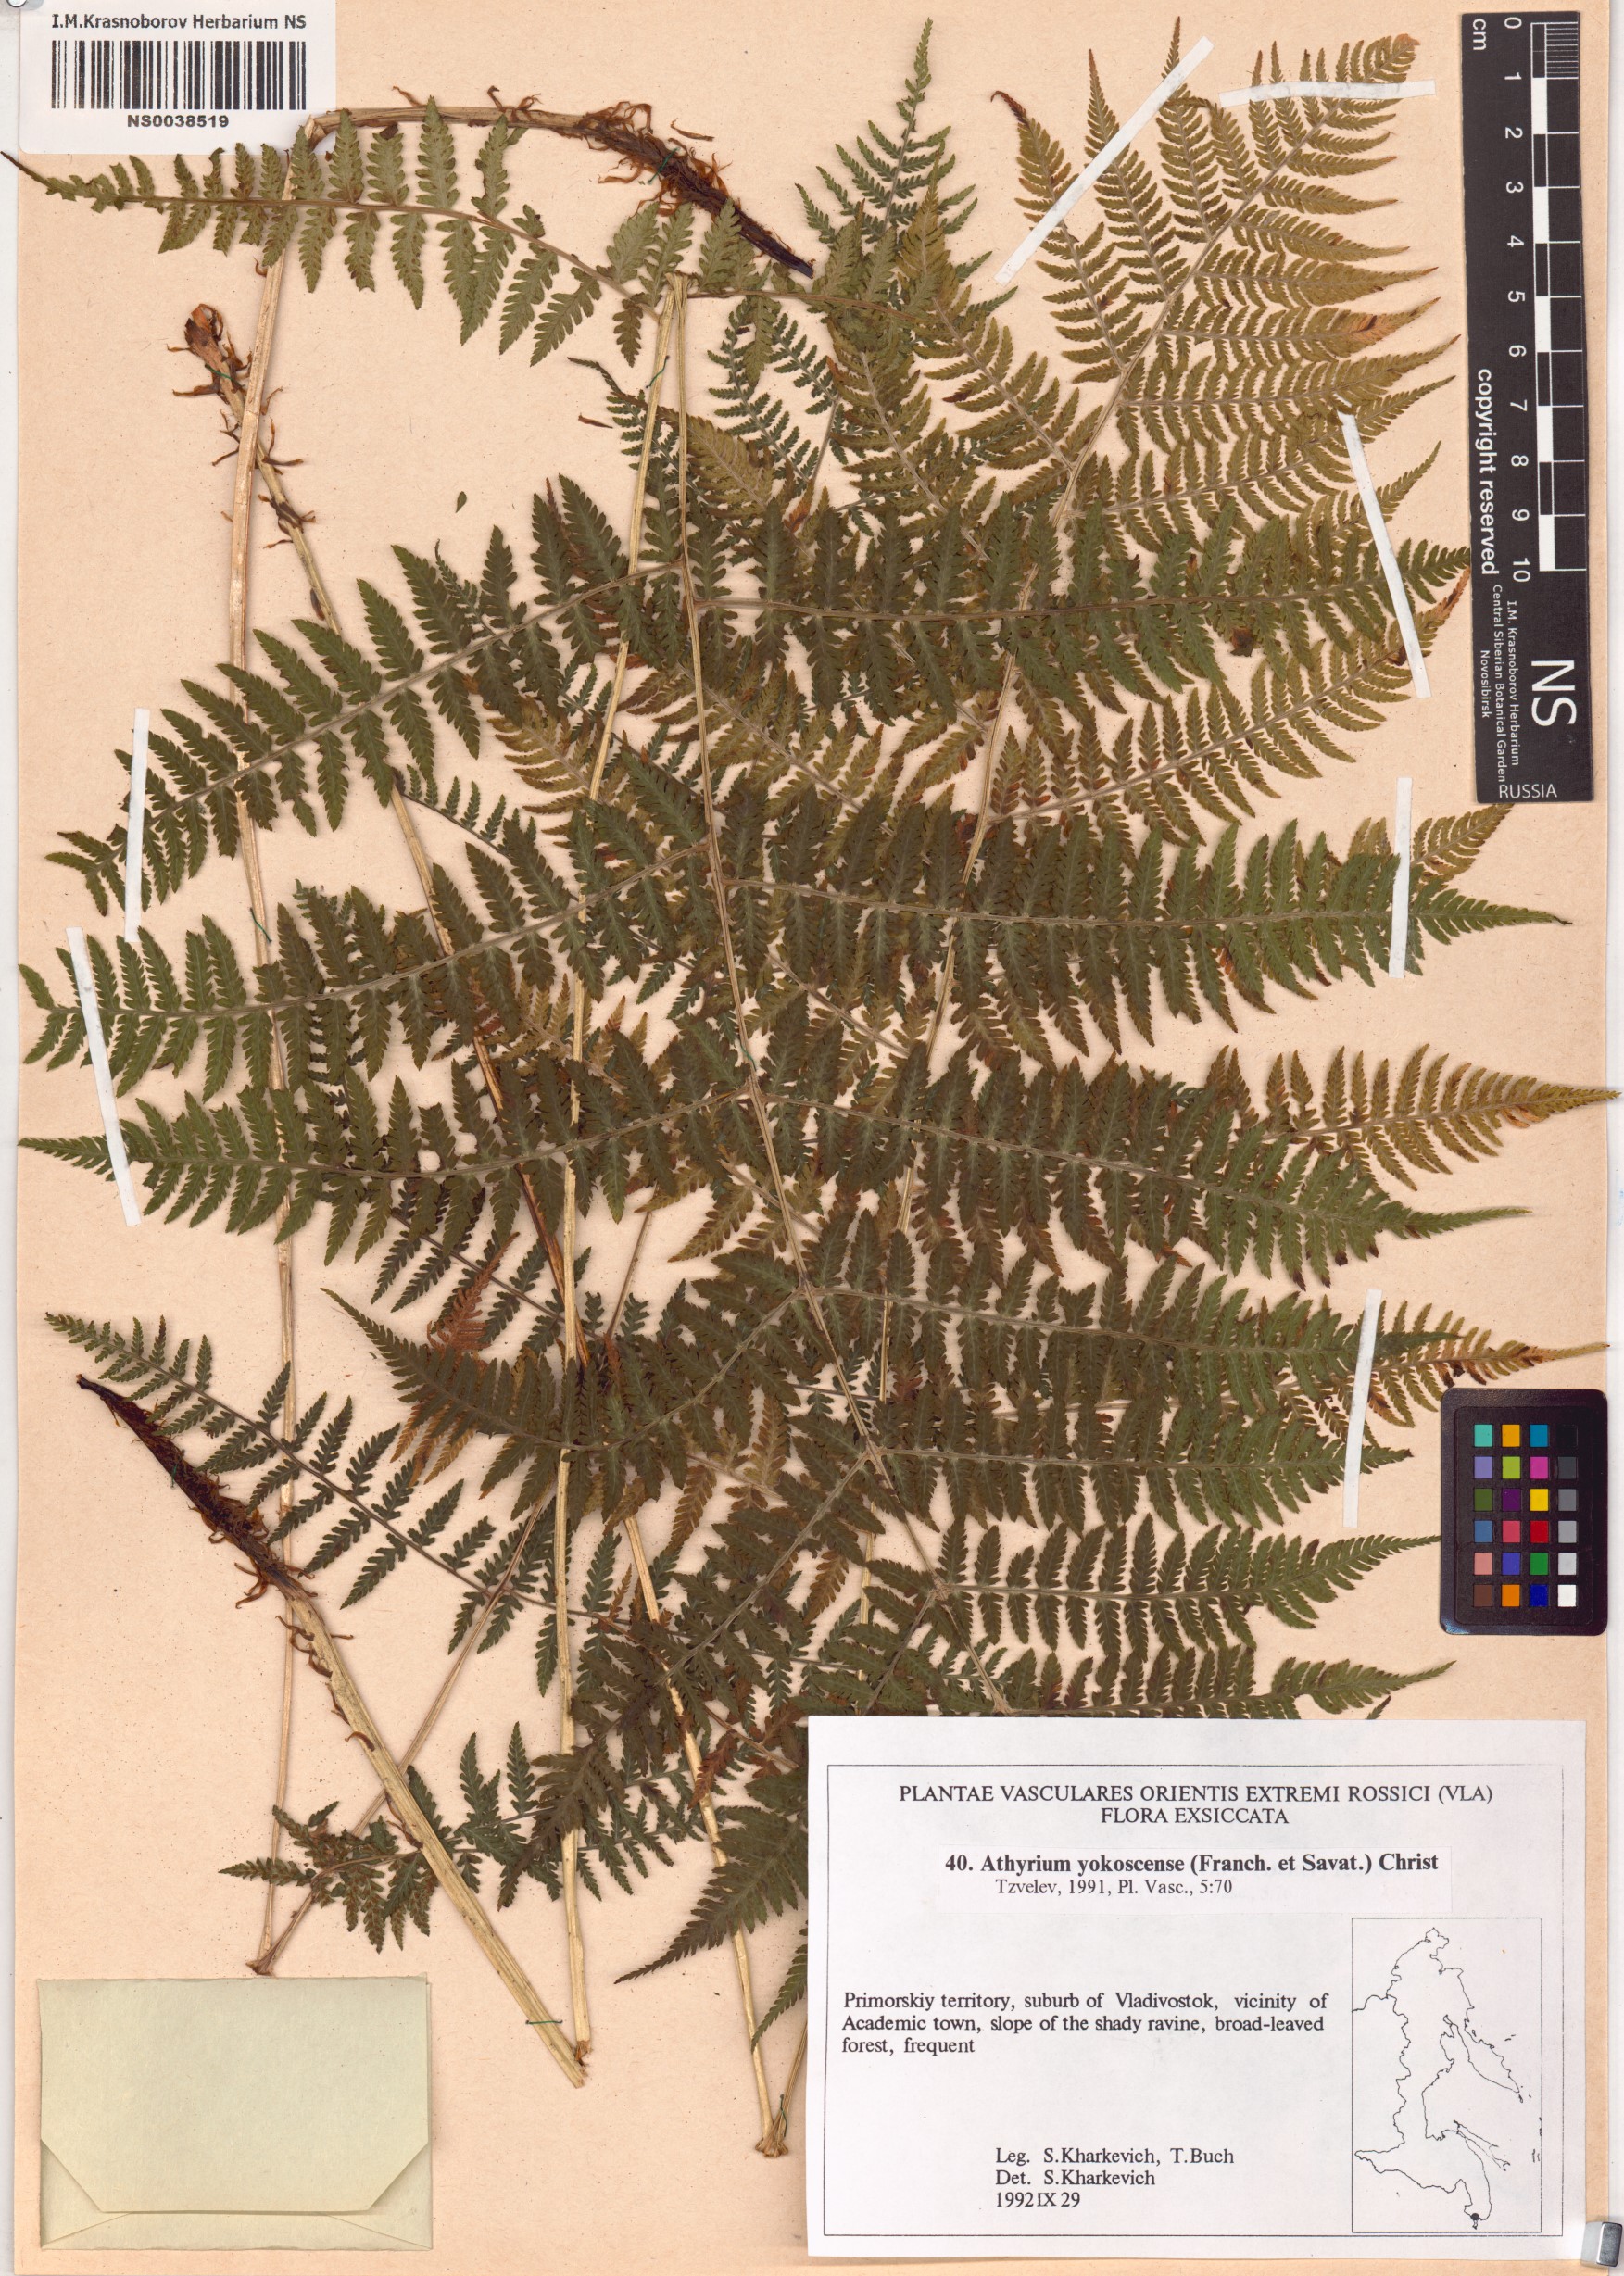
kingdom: Plantae
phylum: Tracheophyta
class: Polypodiopsida
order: Polypodiales
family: Athyriaceae
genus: Athyrium
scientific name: Athyrium yokoscense
